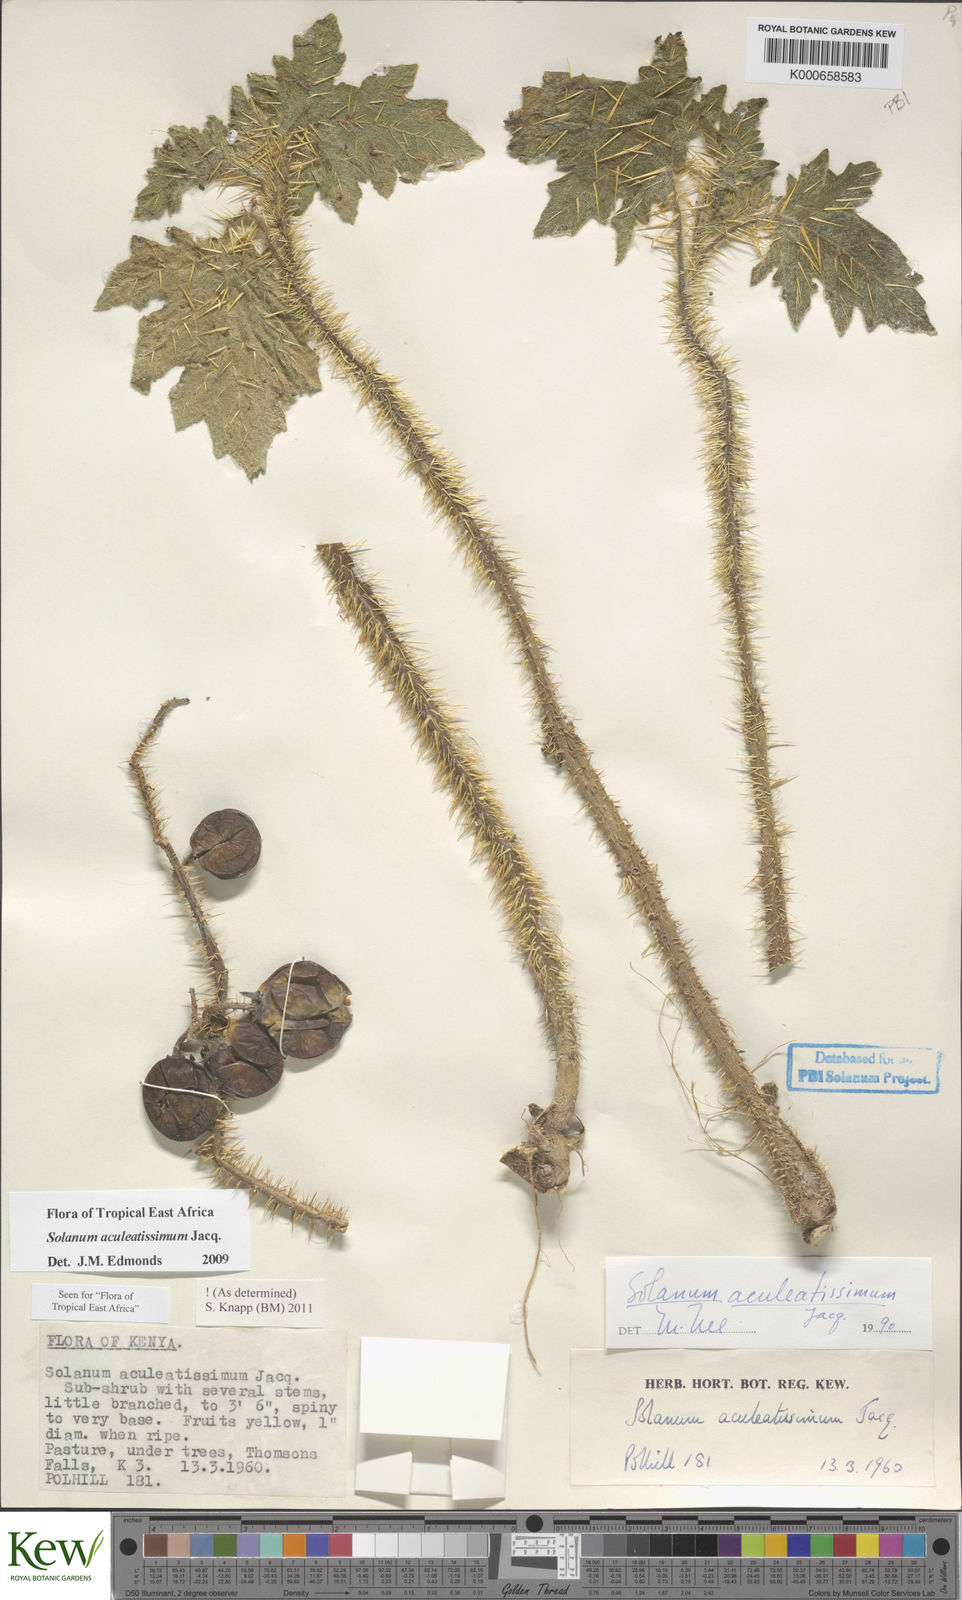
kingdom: Plantae
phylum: Tracheophyta
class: Magnoliopsida
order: Solanales
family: Solanaceae
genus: Solanum
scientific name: Solanum aculeatissimum
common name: Dutch eggplant
